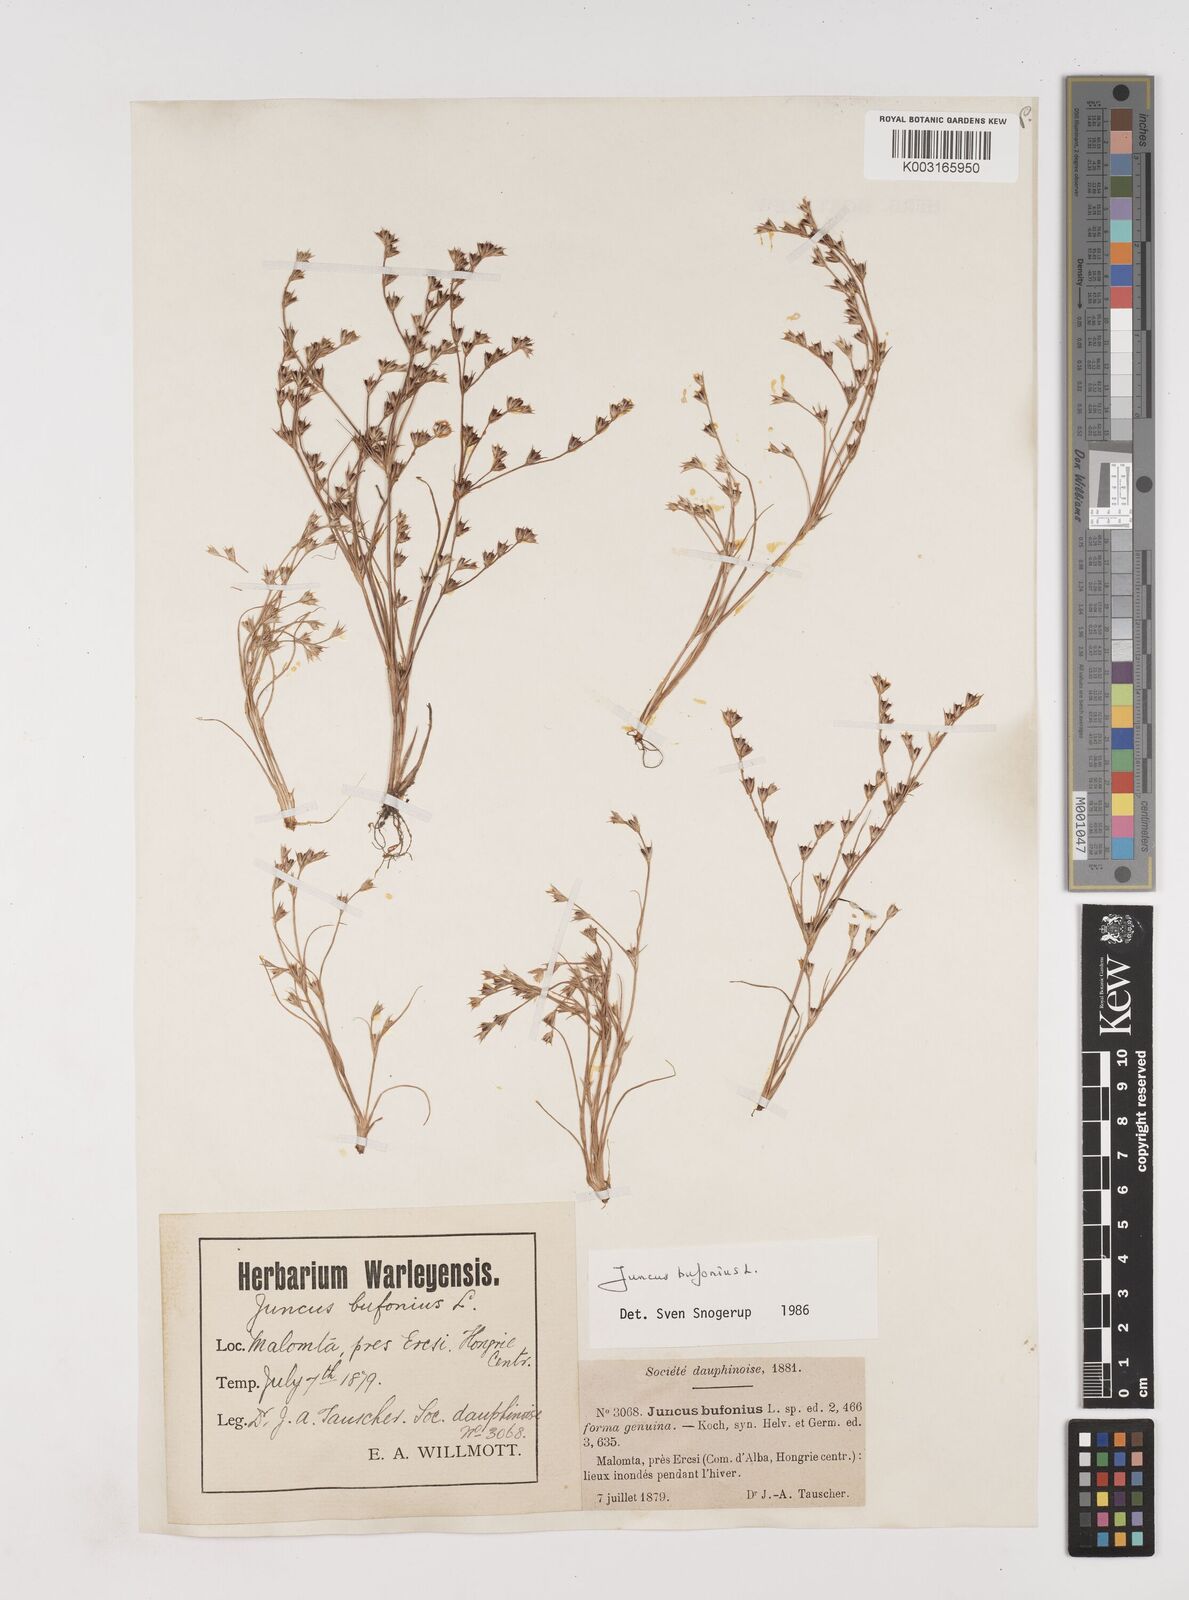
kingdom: Plantae
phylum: Tracheophyta
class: Liliopsida
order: Poales
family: Juncaceae
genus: Juncus
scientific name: Juncus bufonius
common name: Toad rush
